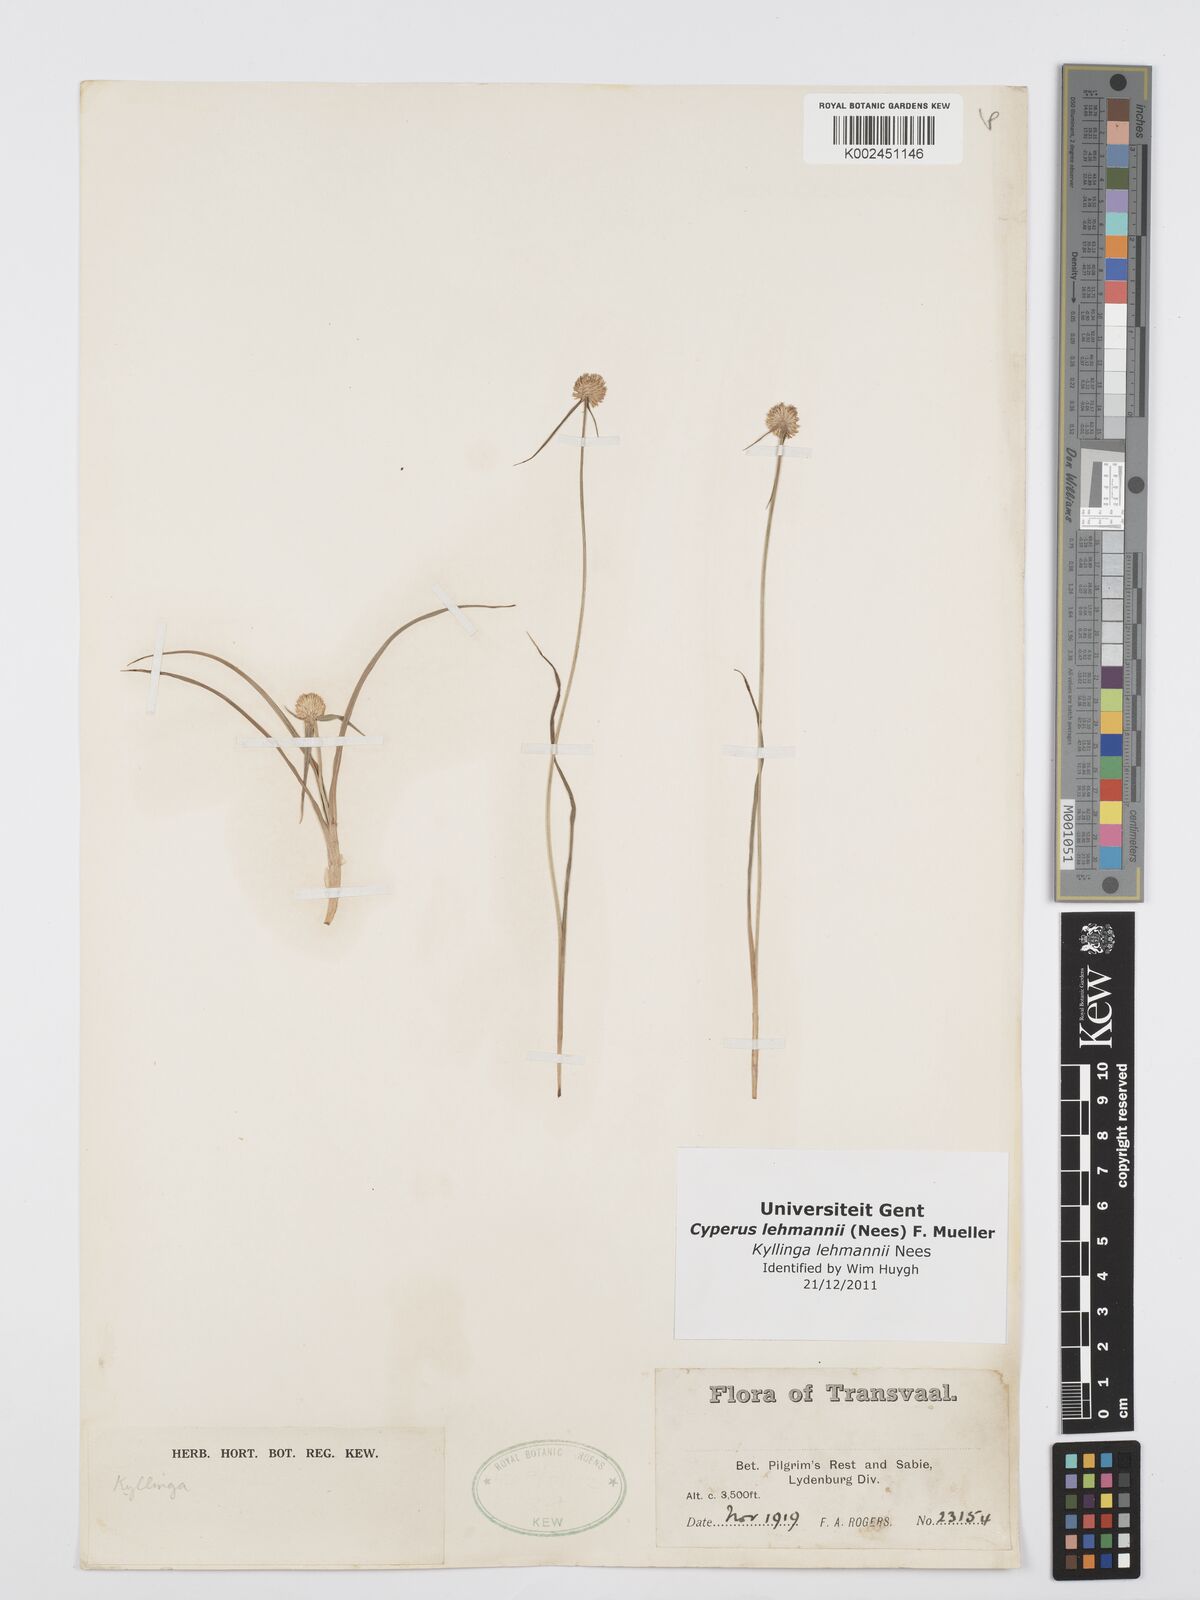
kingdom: Plantae
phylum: Tracheophyta
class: Liliopsida
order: Poales
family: Cyperaceae
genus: Cyperus
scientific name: Cyperus lehmannii
